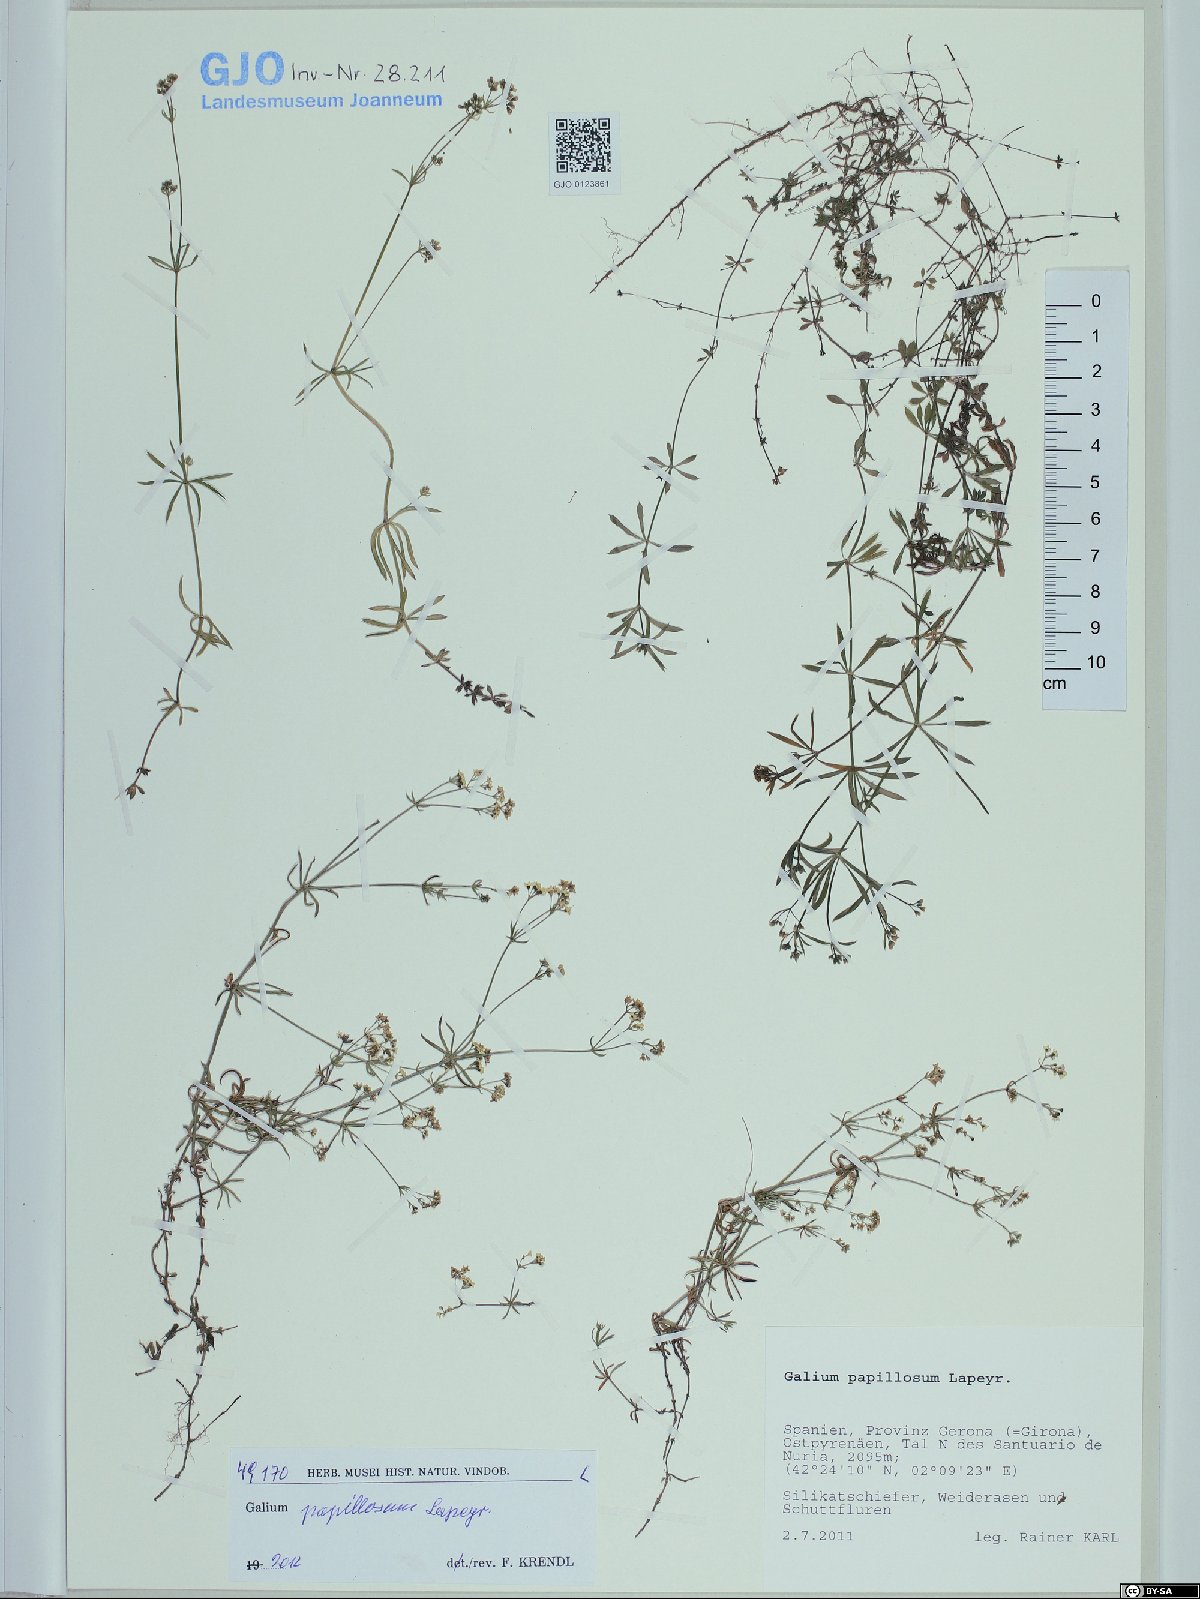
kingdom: Plantae
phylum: Tracheophyta
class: Magnoliopsida
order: Gentianales
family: Rubiaceae
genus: Galium
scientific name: Galium papillosum
